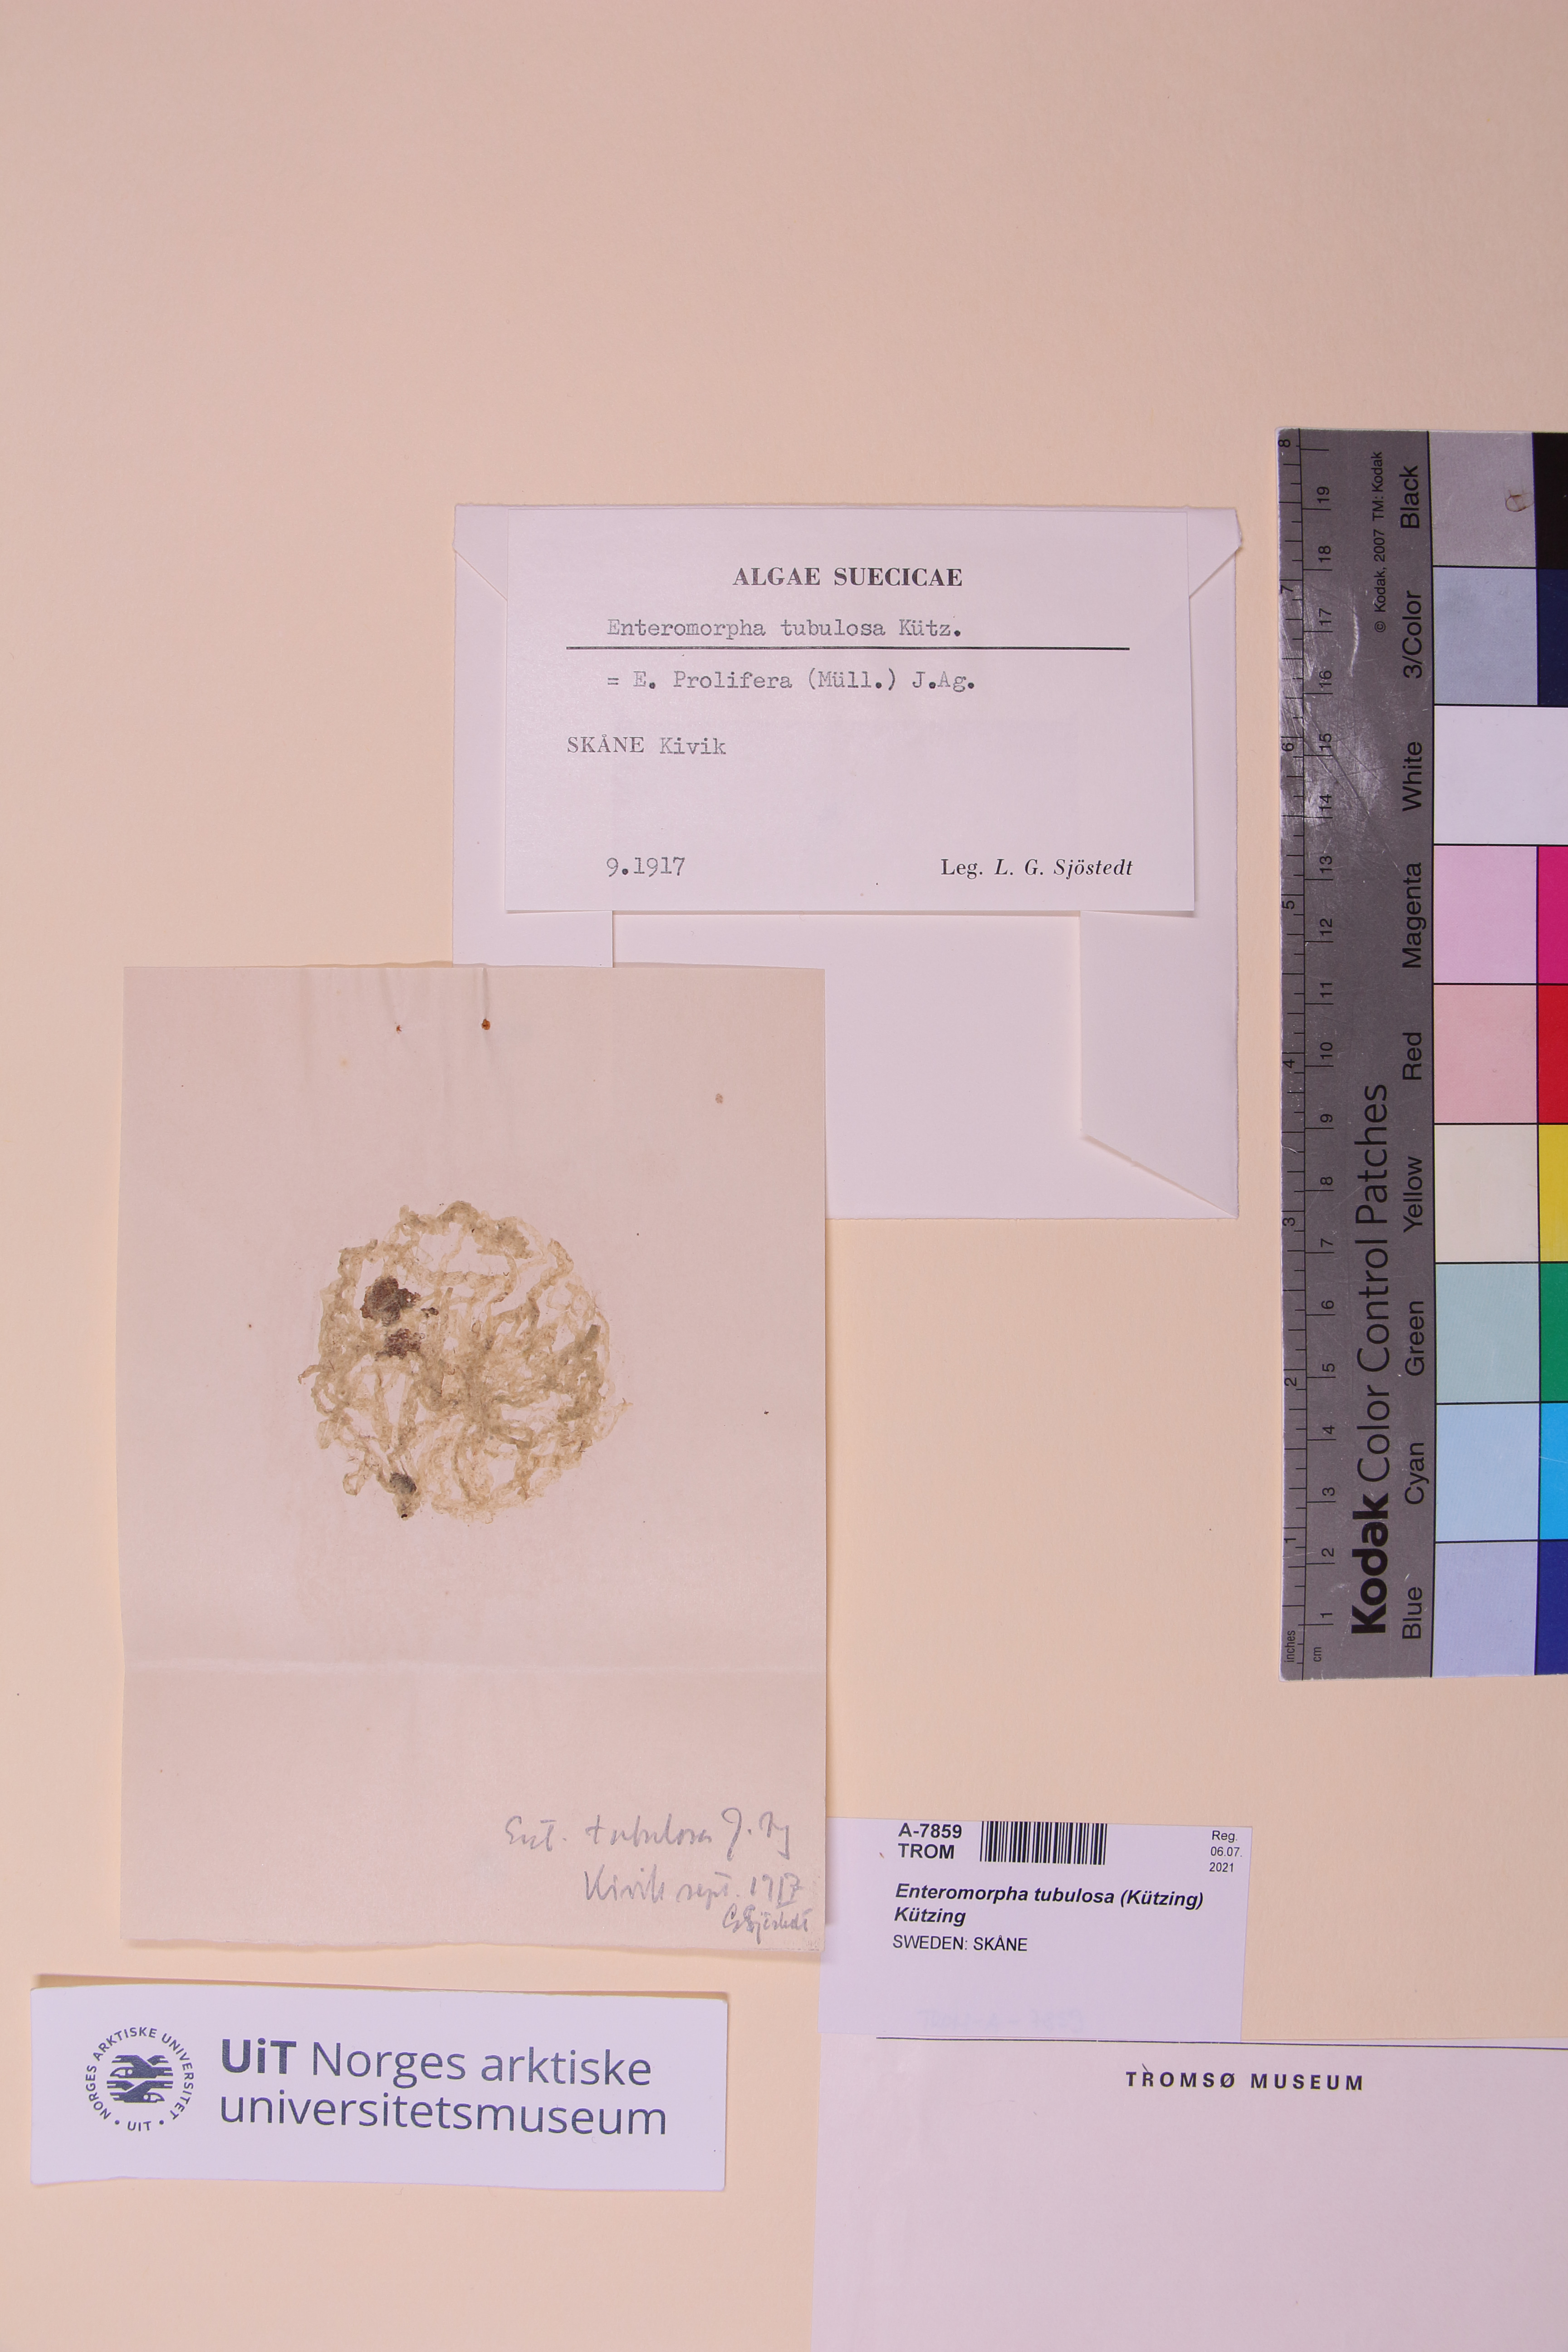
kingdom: Plantae
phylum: Chlorophyta
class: Ulvophyceae
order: Ulvales
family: Ulvaceae
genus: Ulva
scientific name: Ulva prolifera
